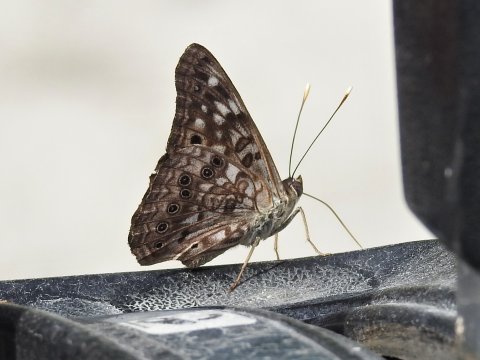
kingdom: Animalia
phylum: Arthropoda
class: Insecta
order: Lepidoptera
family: Nymphalidae
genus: Asterocampa
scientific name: Asterocampa celtis
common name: Hackberry Emperor
